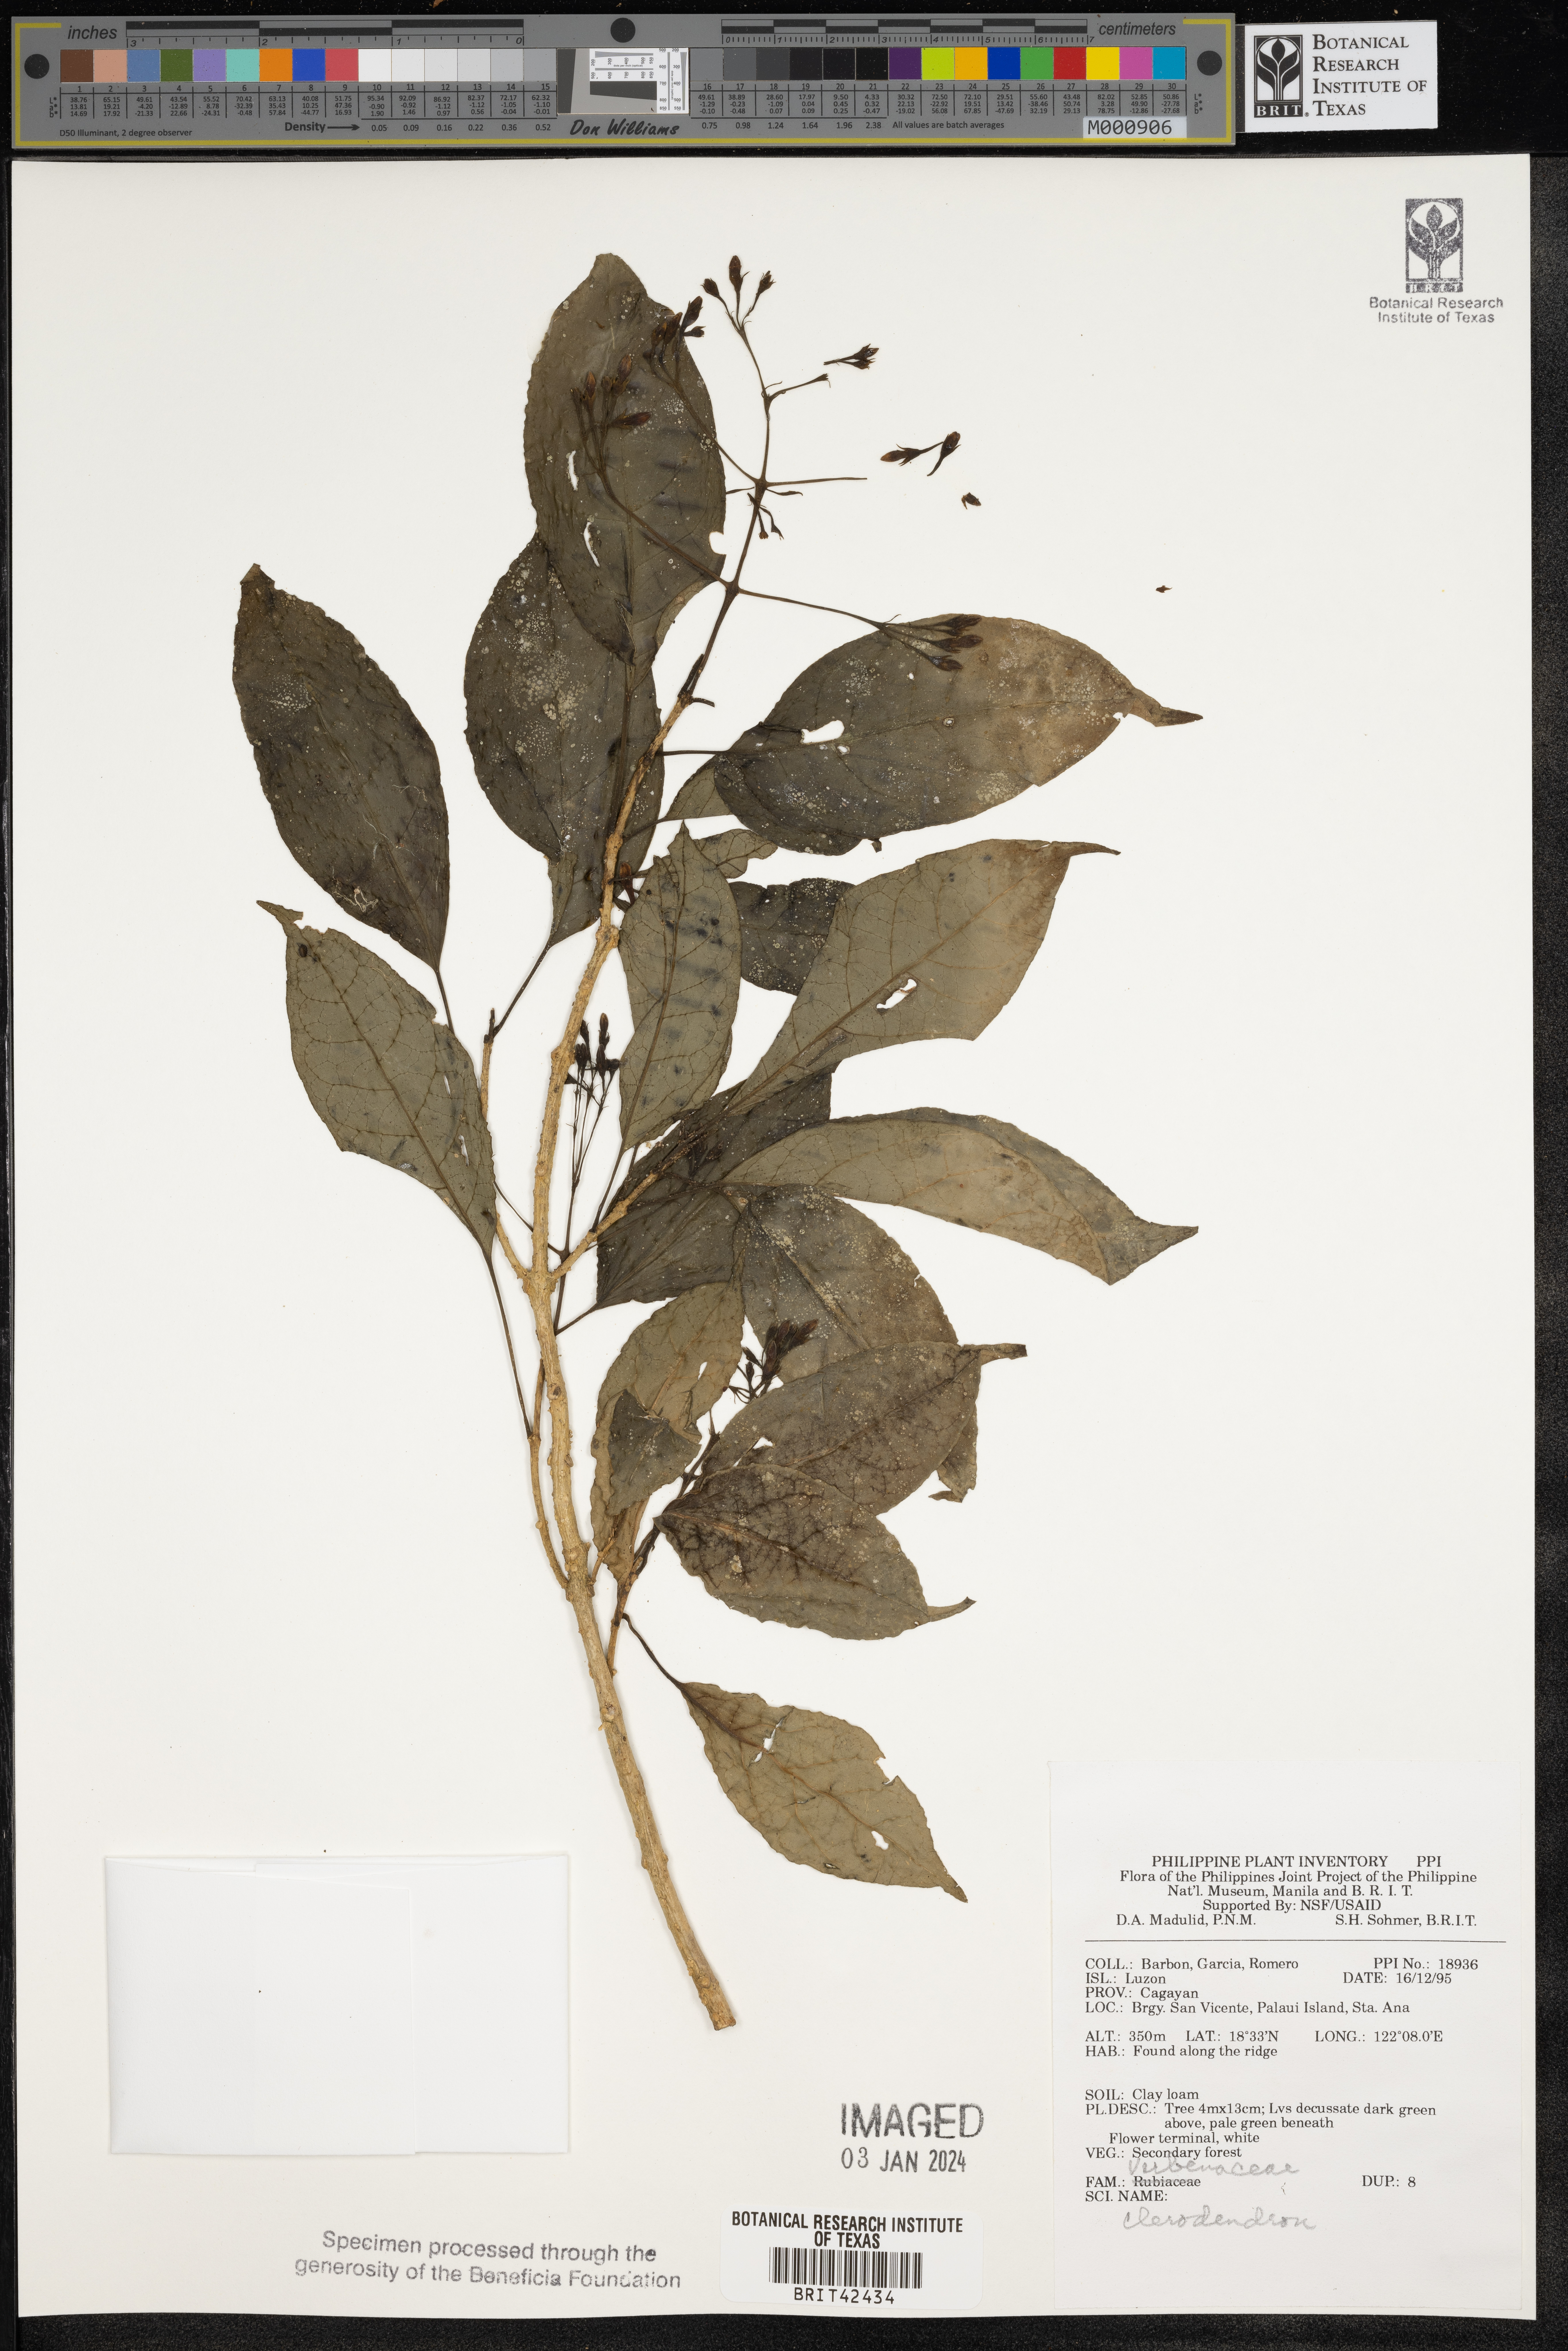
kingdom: Plantae
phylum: Tracheophyta
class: Magnoliopsida
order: Lamiales
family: Lamiaceae
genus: Clerodendrum
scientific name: Clerodendrum
